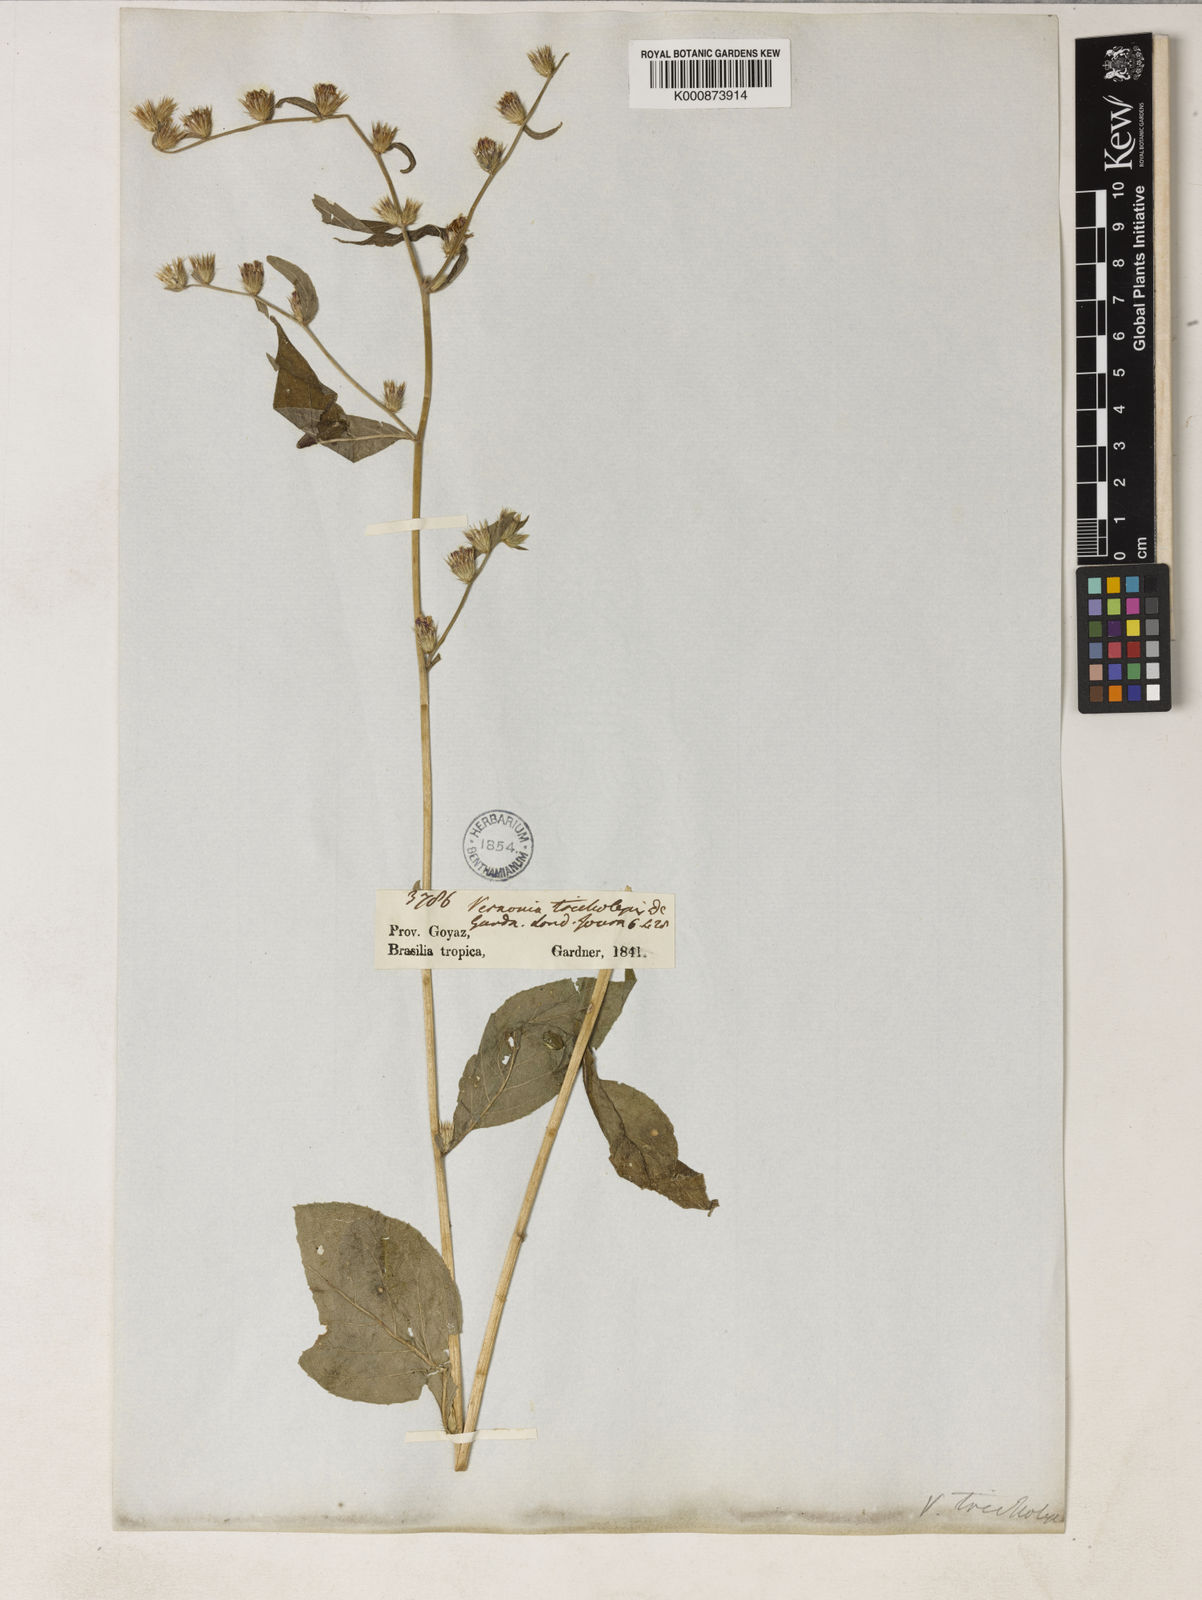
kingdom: Plantae
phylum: Tracheophyta
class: Magnoliopsida
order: Asterales
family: Asteraceae
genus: Lepidaploa
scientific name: Lepidaploa remotiflora
